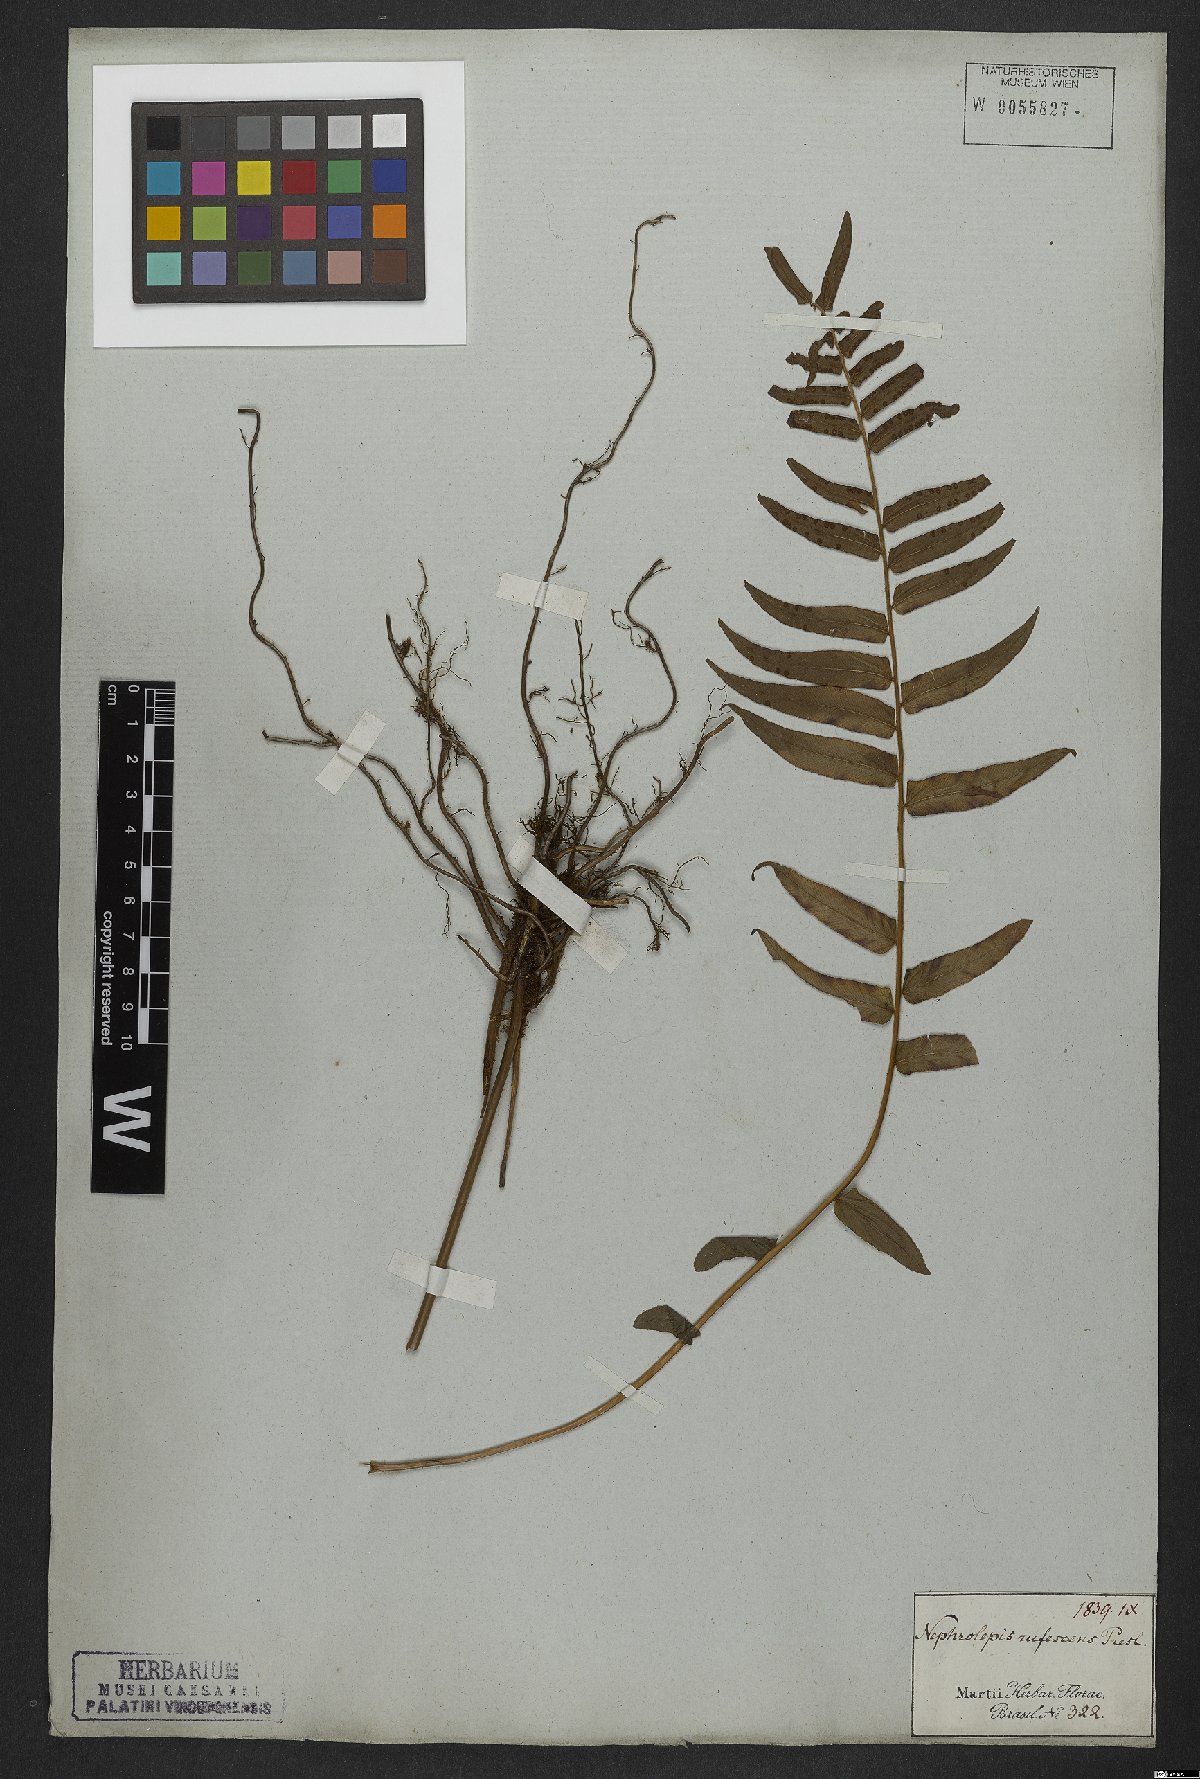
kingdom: Plantae
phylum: Tracheophyta
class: Polypodiopsida
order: Polypodiales
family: Nephrolepidaceae
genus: Nephrolepis
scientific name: Nephrolepis biserrata
